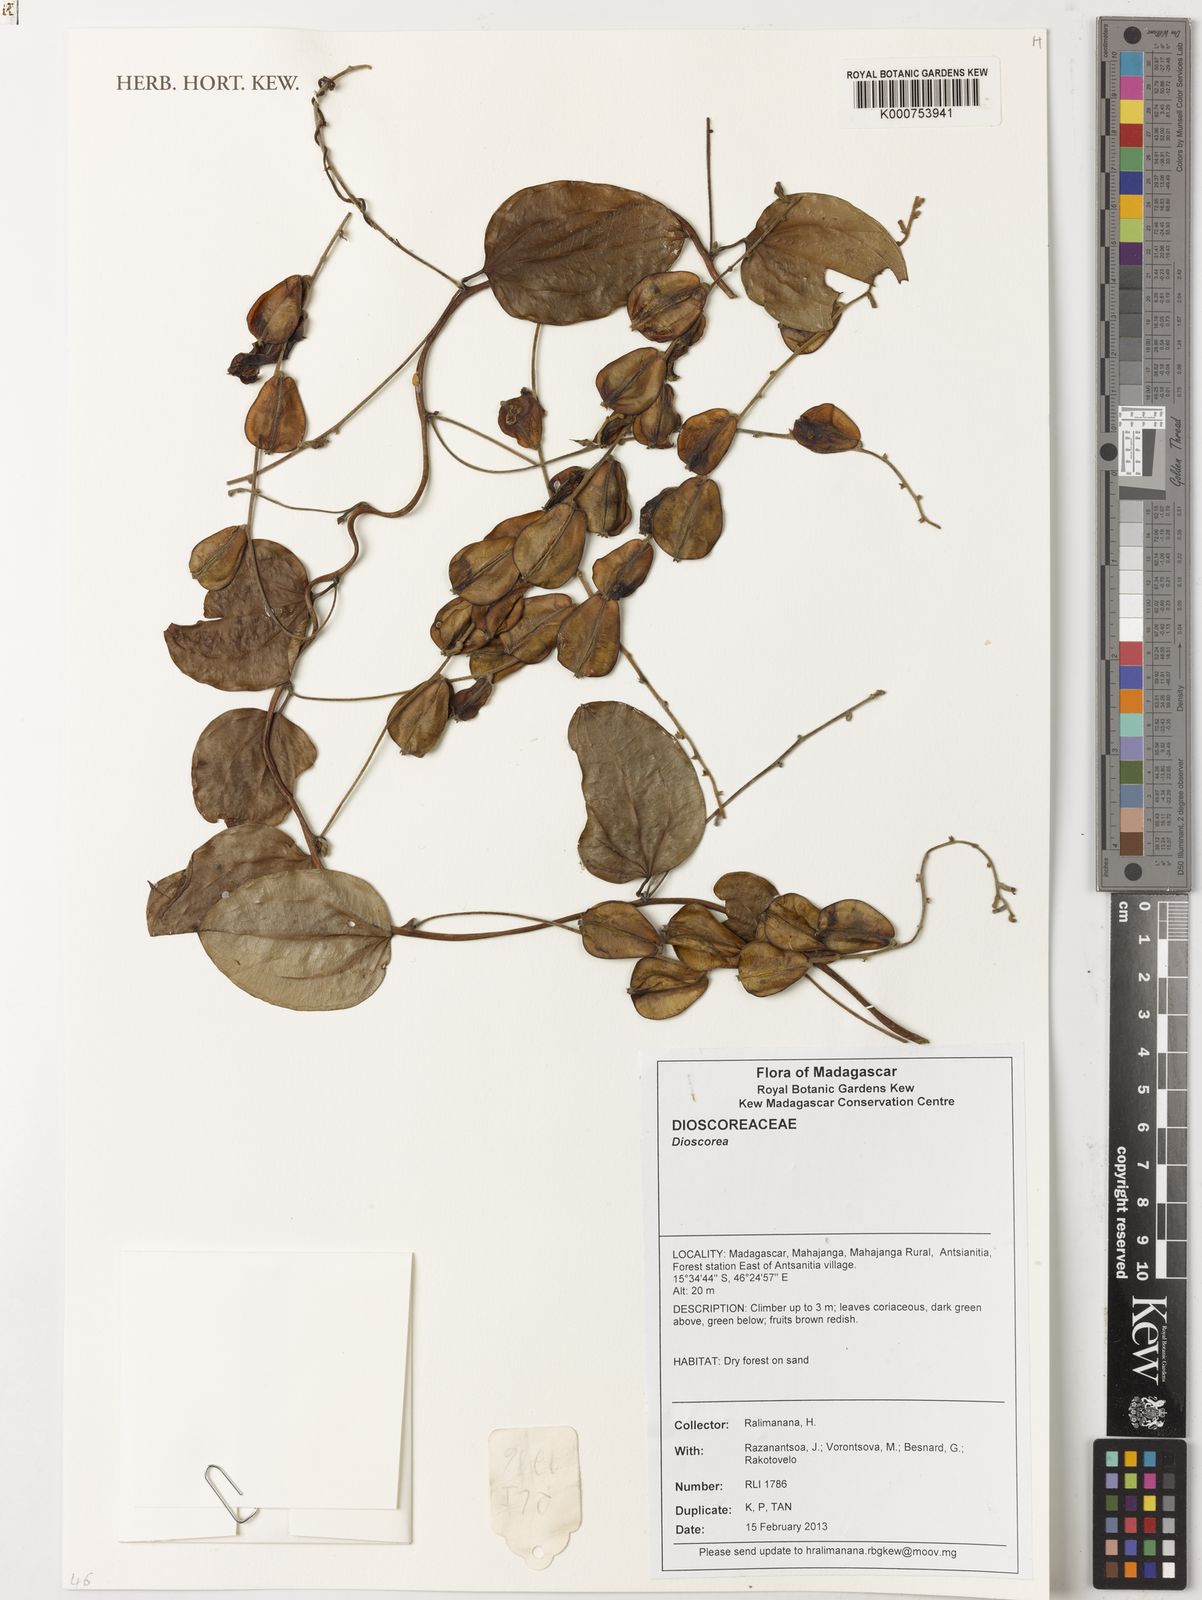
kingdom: Plantae
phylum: Tracheophyta
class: Liliopsida
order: Dioscoreales
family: Dioscoreaceae
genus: Dioscorea
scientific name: Dioscorea
